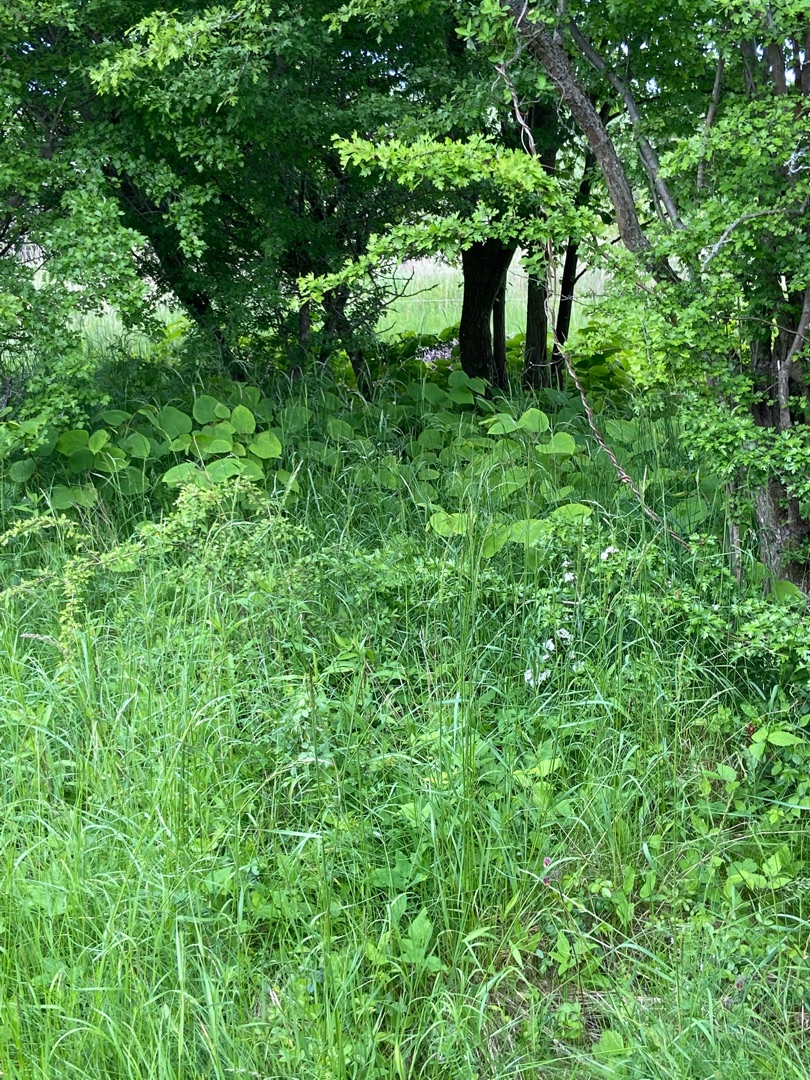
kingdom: Plantae
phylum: Tracheophyta
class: Magnoliopsida
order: Caryophyllales
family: Polygonaceae
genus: Reynoutria
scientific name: Reynoutria bohemica
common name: Hybrid-pileurt
